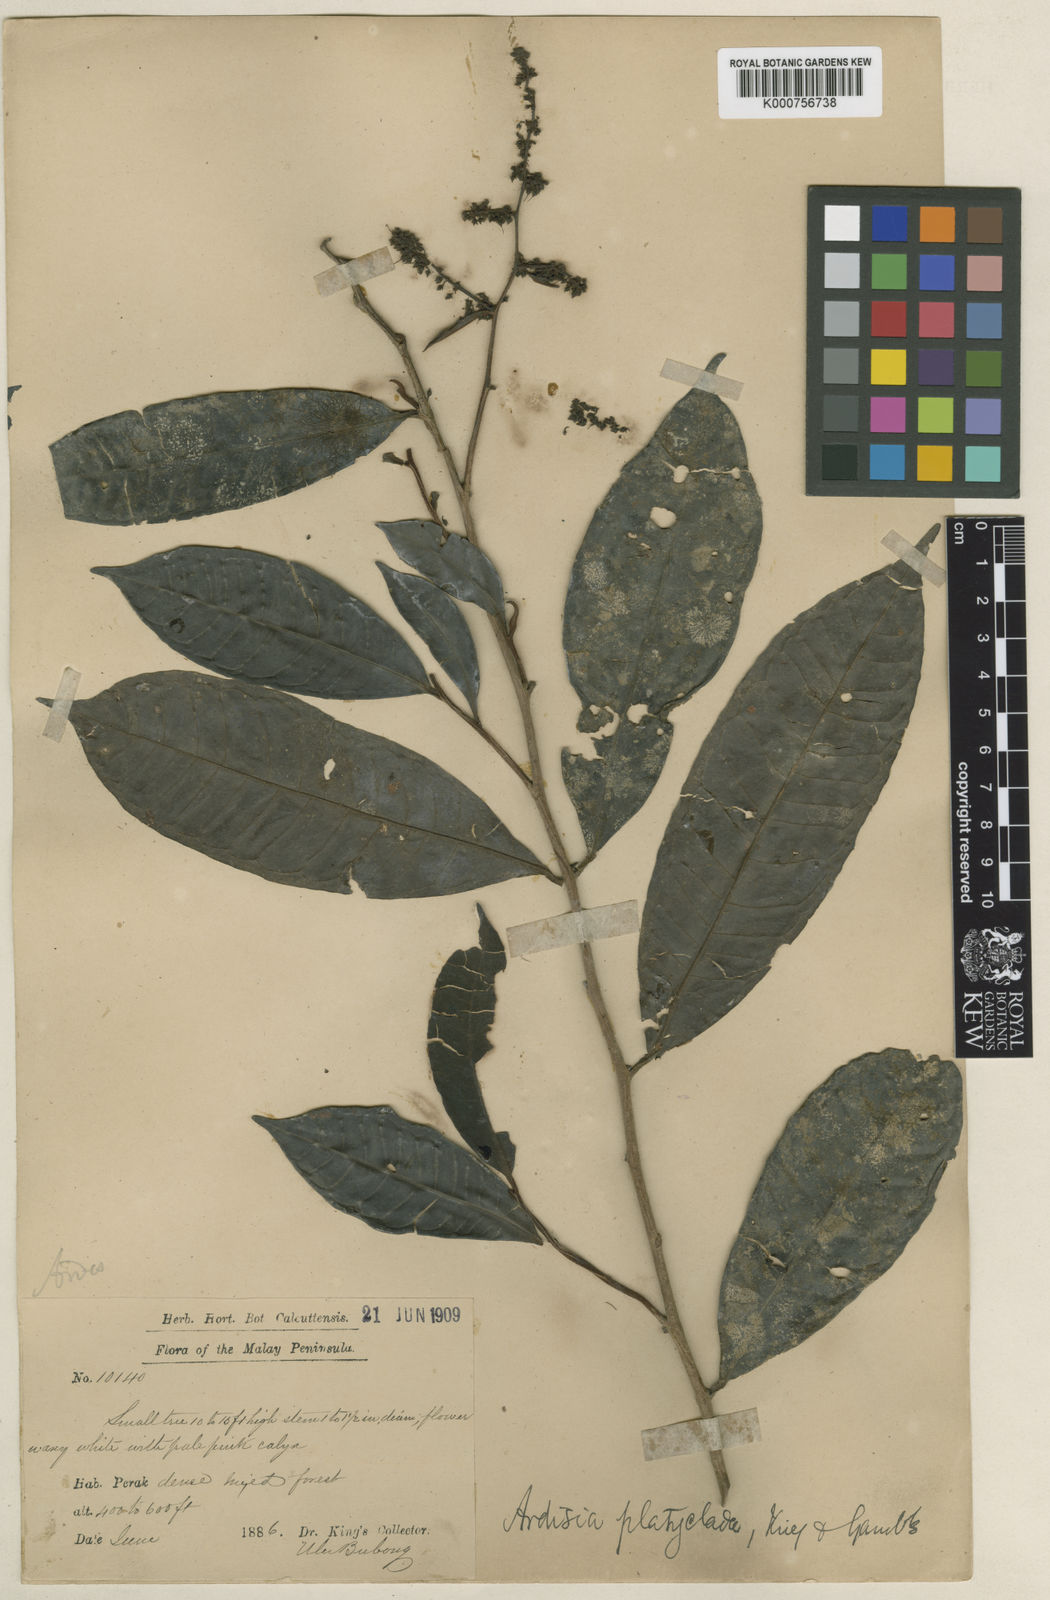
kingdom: Plantae
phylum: Tracheophyta
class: Magnoliopsida
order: Ericales
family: Primulaceae
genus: Ardisia
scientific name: Ardisia pterocaulis
